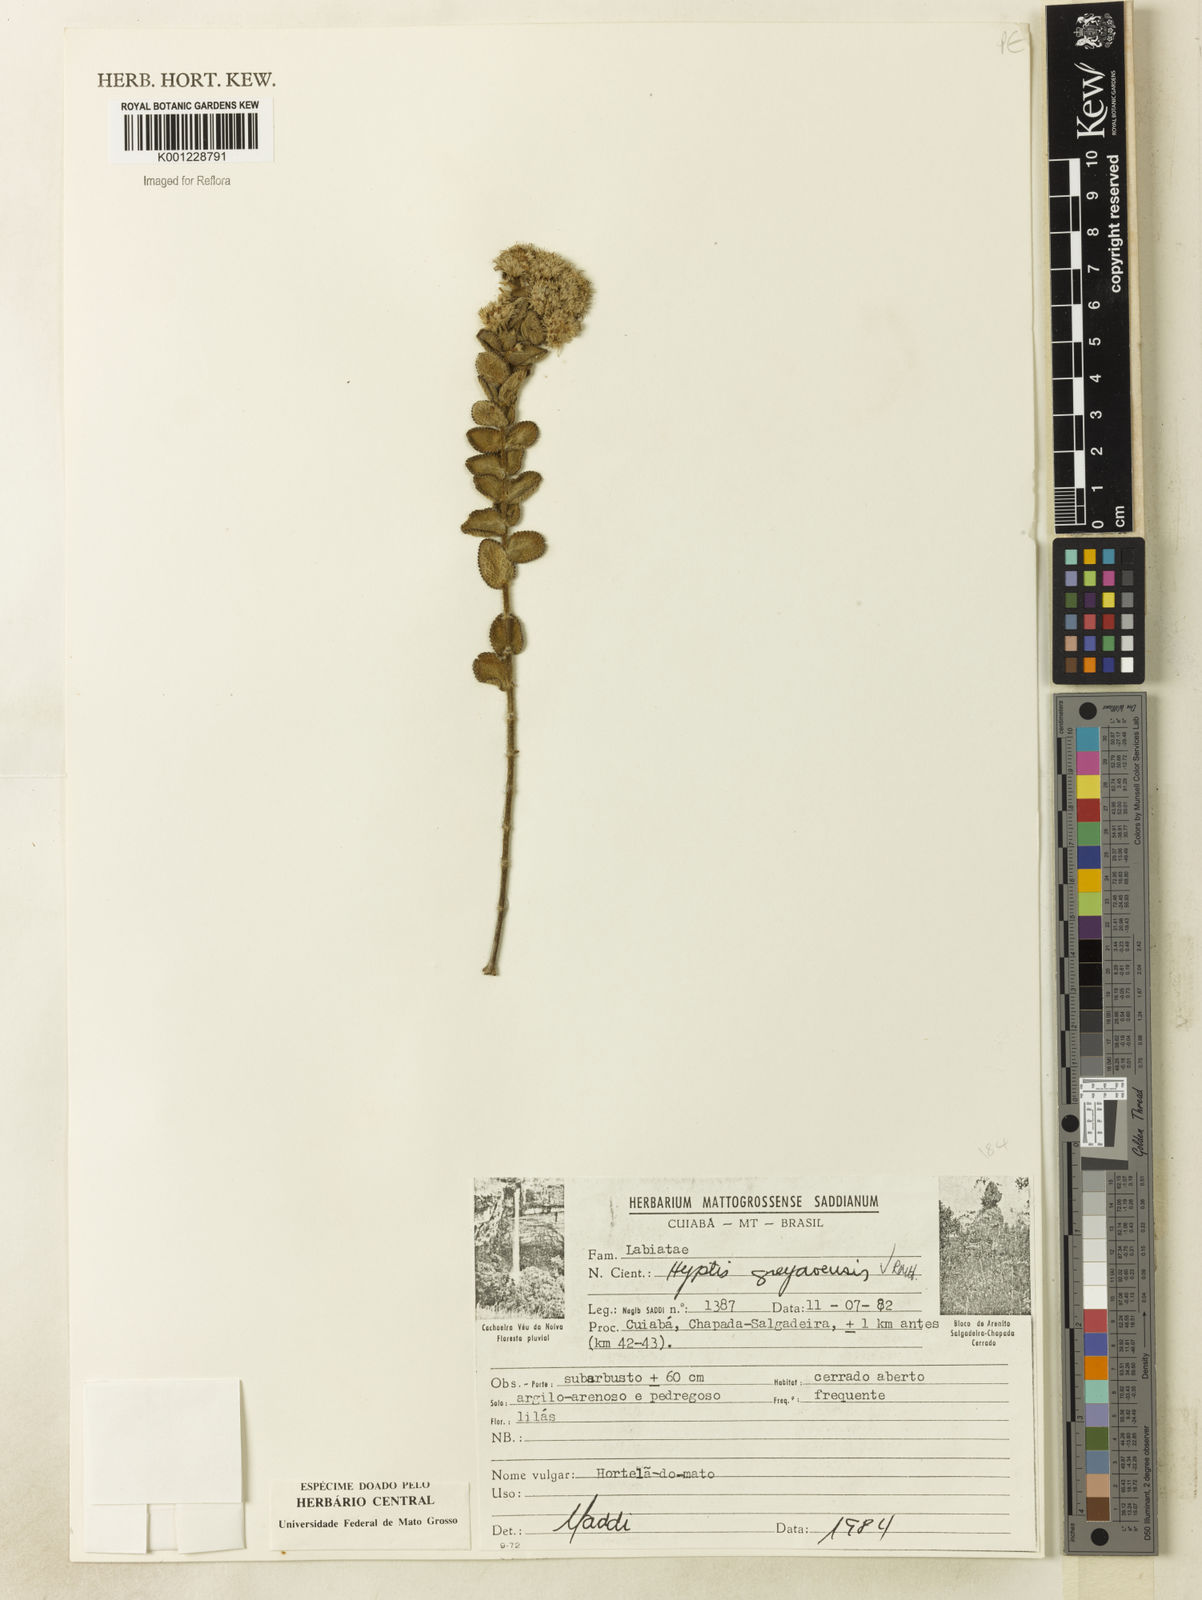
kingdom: Plantae
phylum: Tracheophyta
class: Magnoliopsida
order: Lamiales
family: Lamiaceae
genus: Hyptis
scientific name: Hyptis goyazensis
